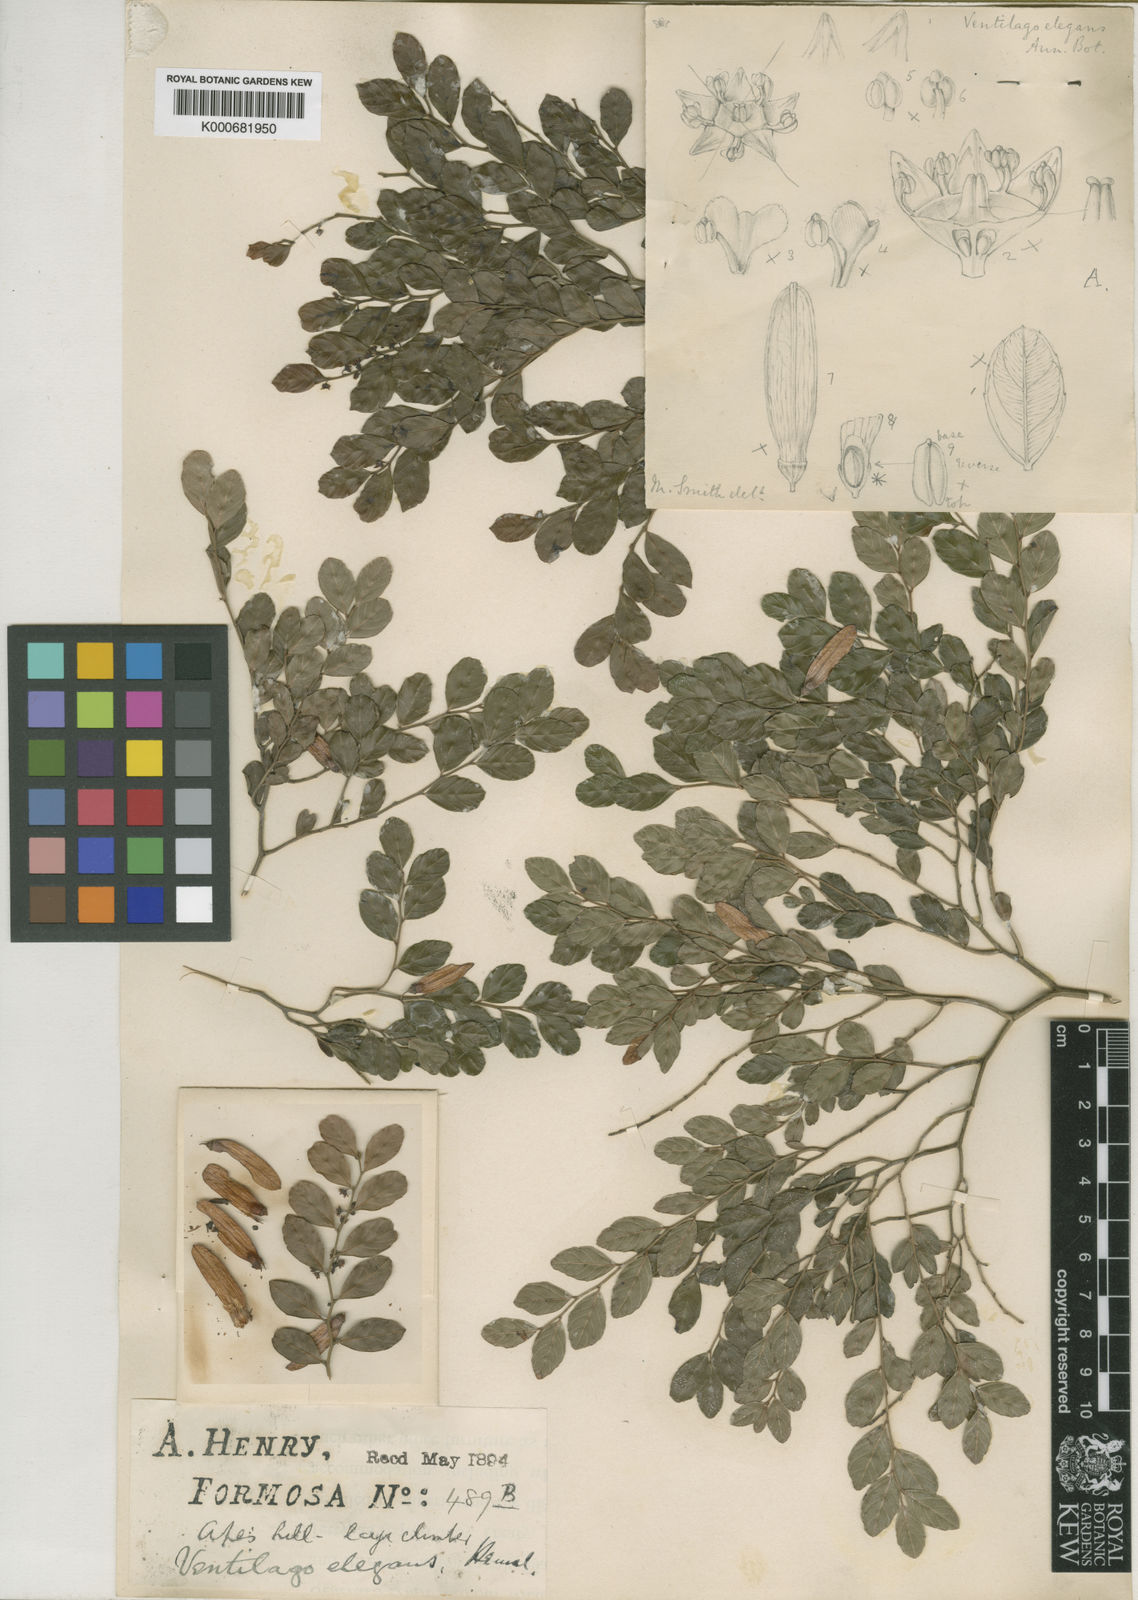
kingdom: Plantae
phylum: Tracheophyta
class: Magnoliopsida
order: Rosales
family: Rhamnaceae
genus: Ventilago
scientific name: Ventilago elegans
